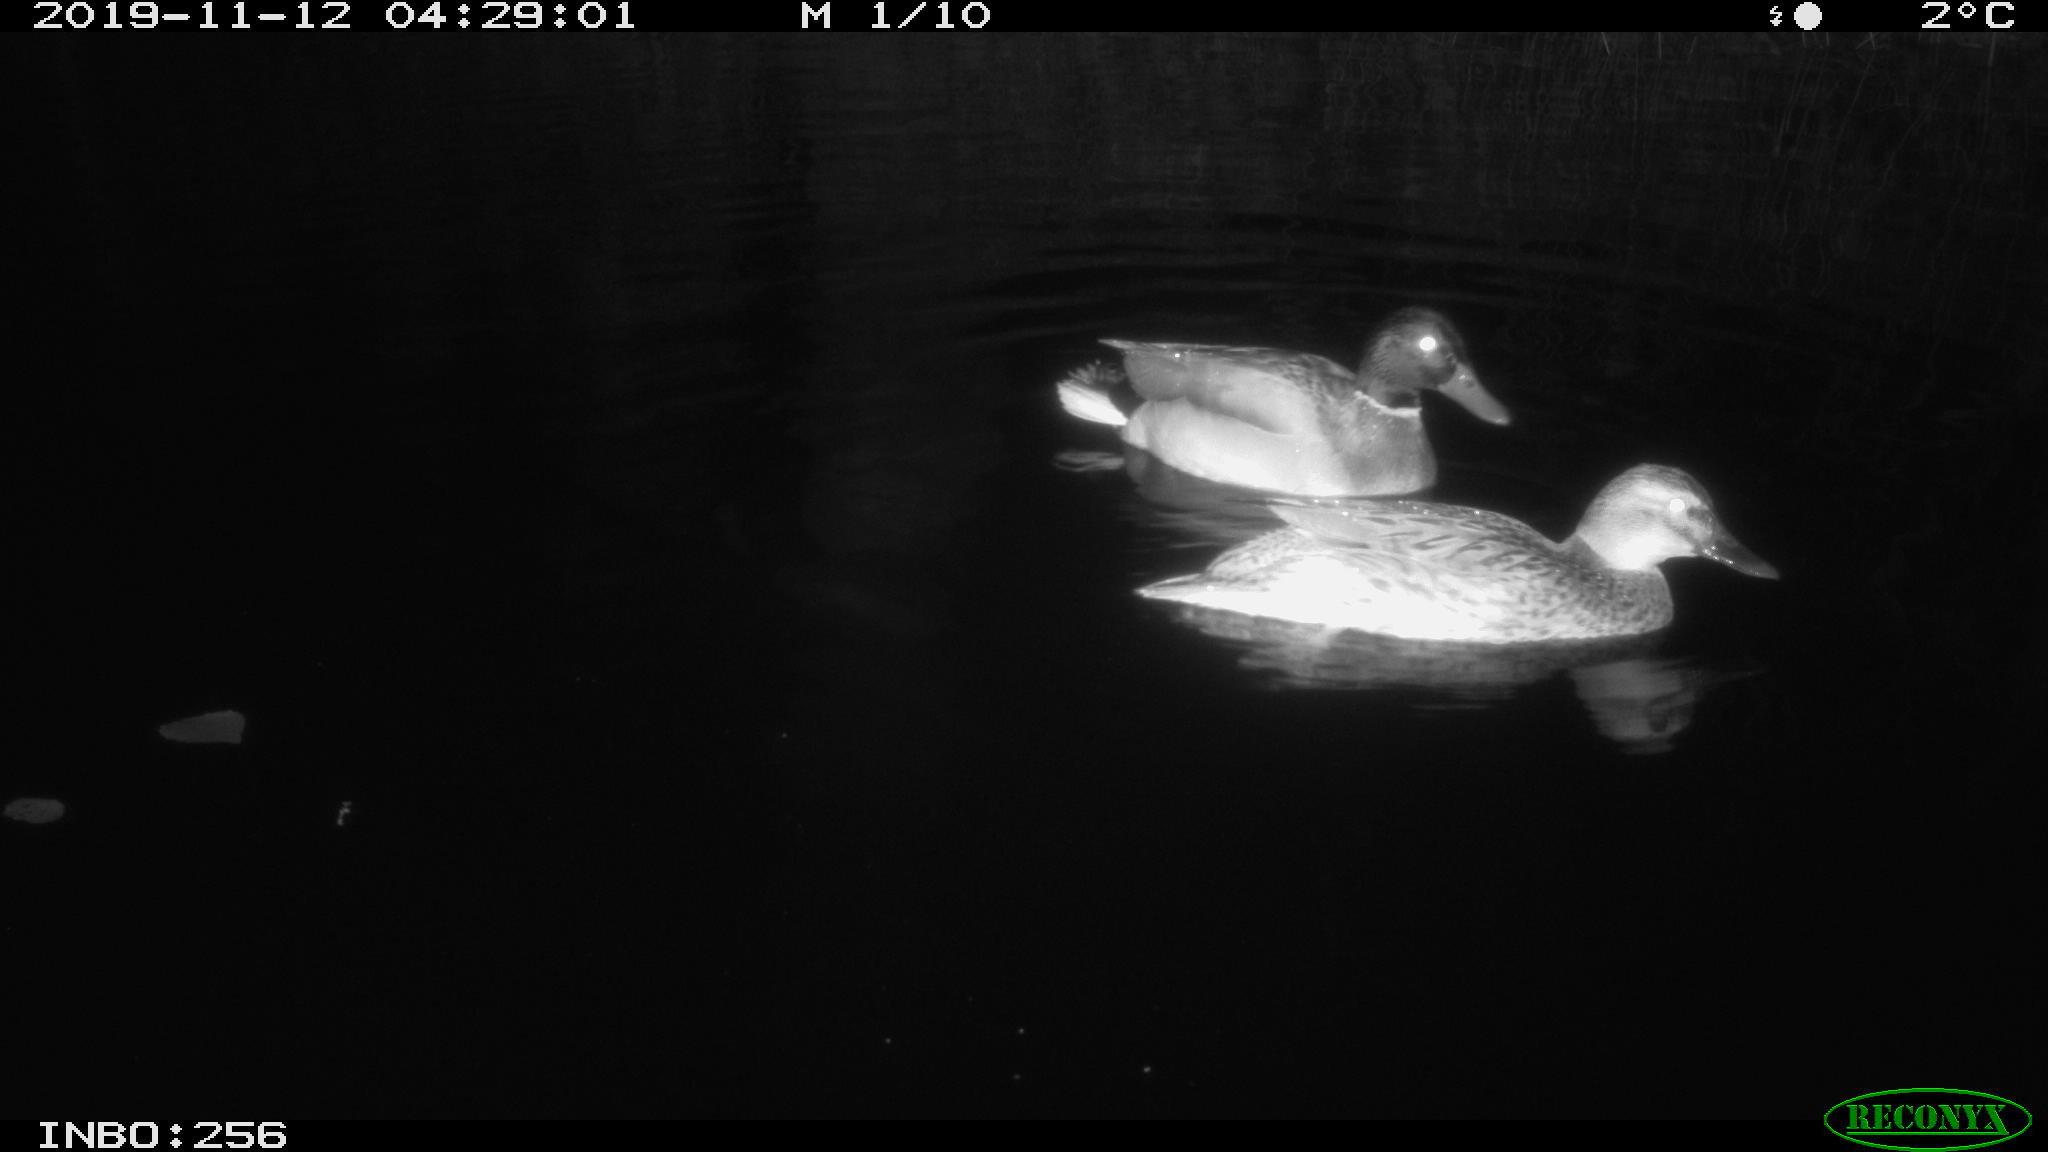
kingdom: Animalia
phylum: Chordata
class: Aves
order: Anseriformes
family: Anatidae
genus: Anas
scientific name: Anas platyrhynchos
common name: Mallard
